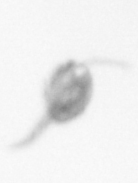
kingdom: Animalia
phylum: Arthropoda
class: Copepoda
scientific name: Copepoda
